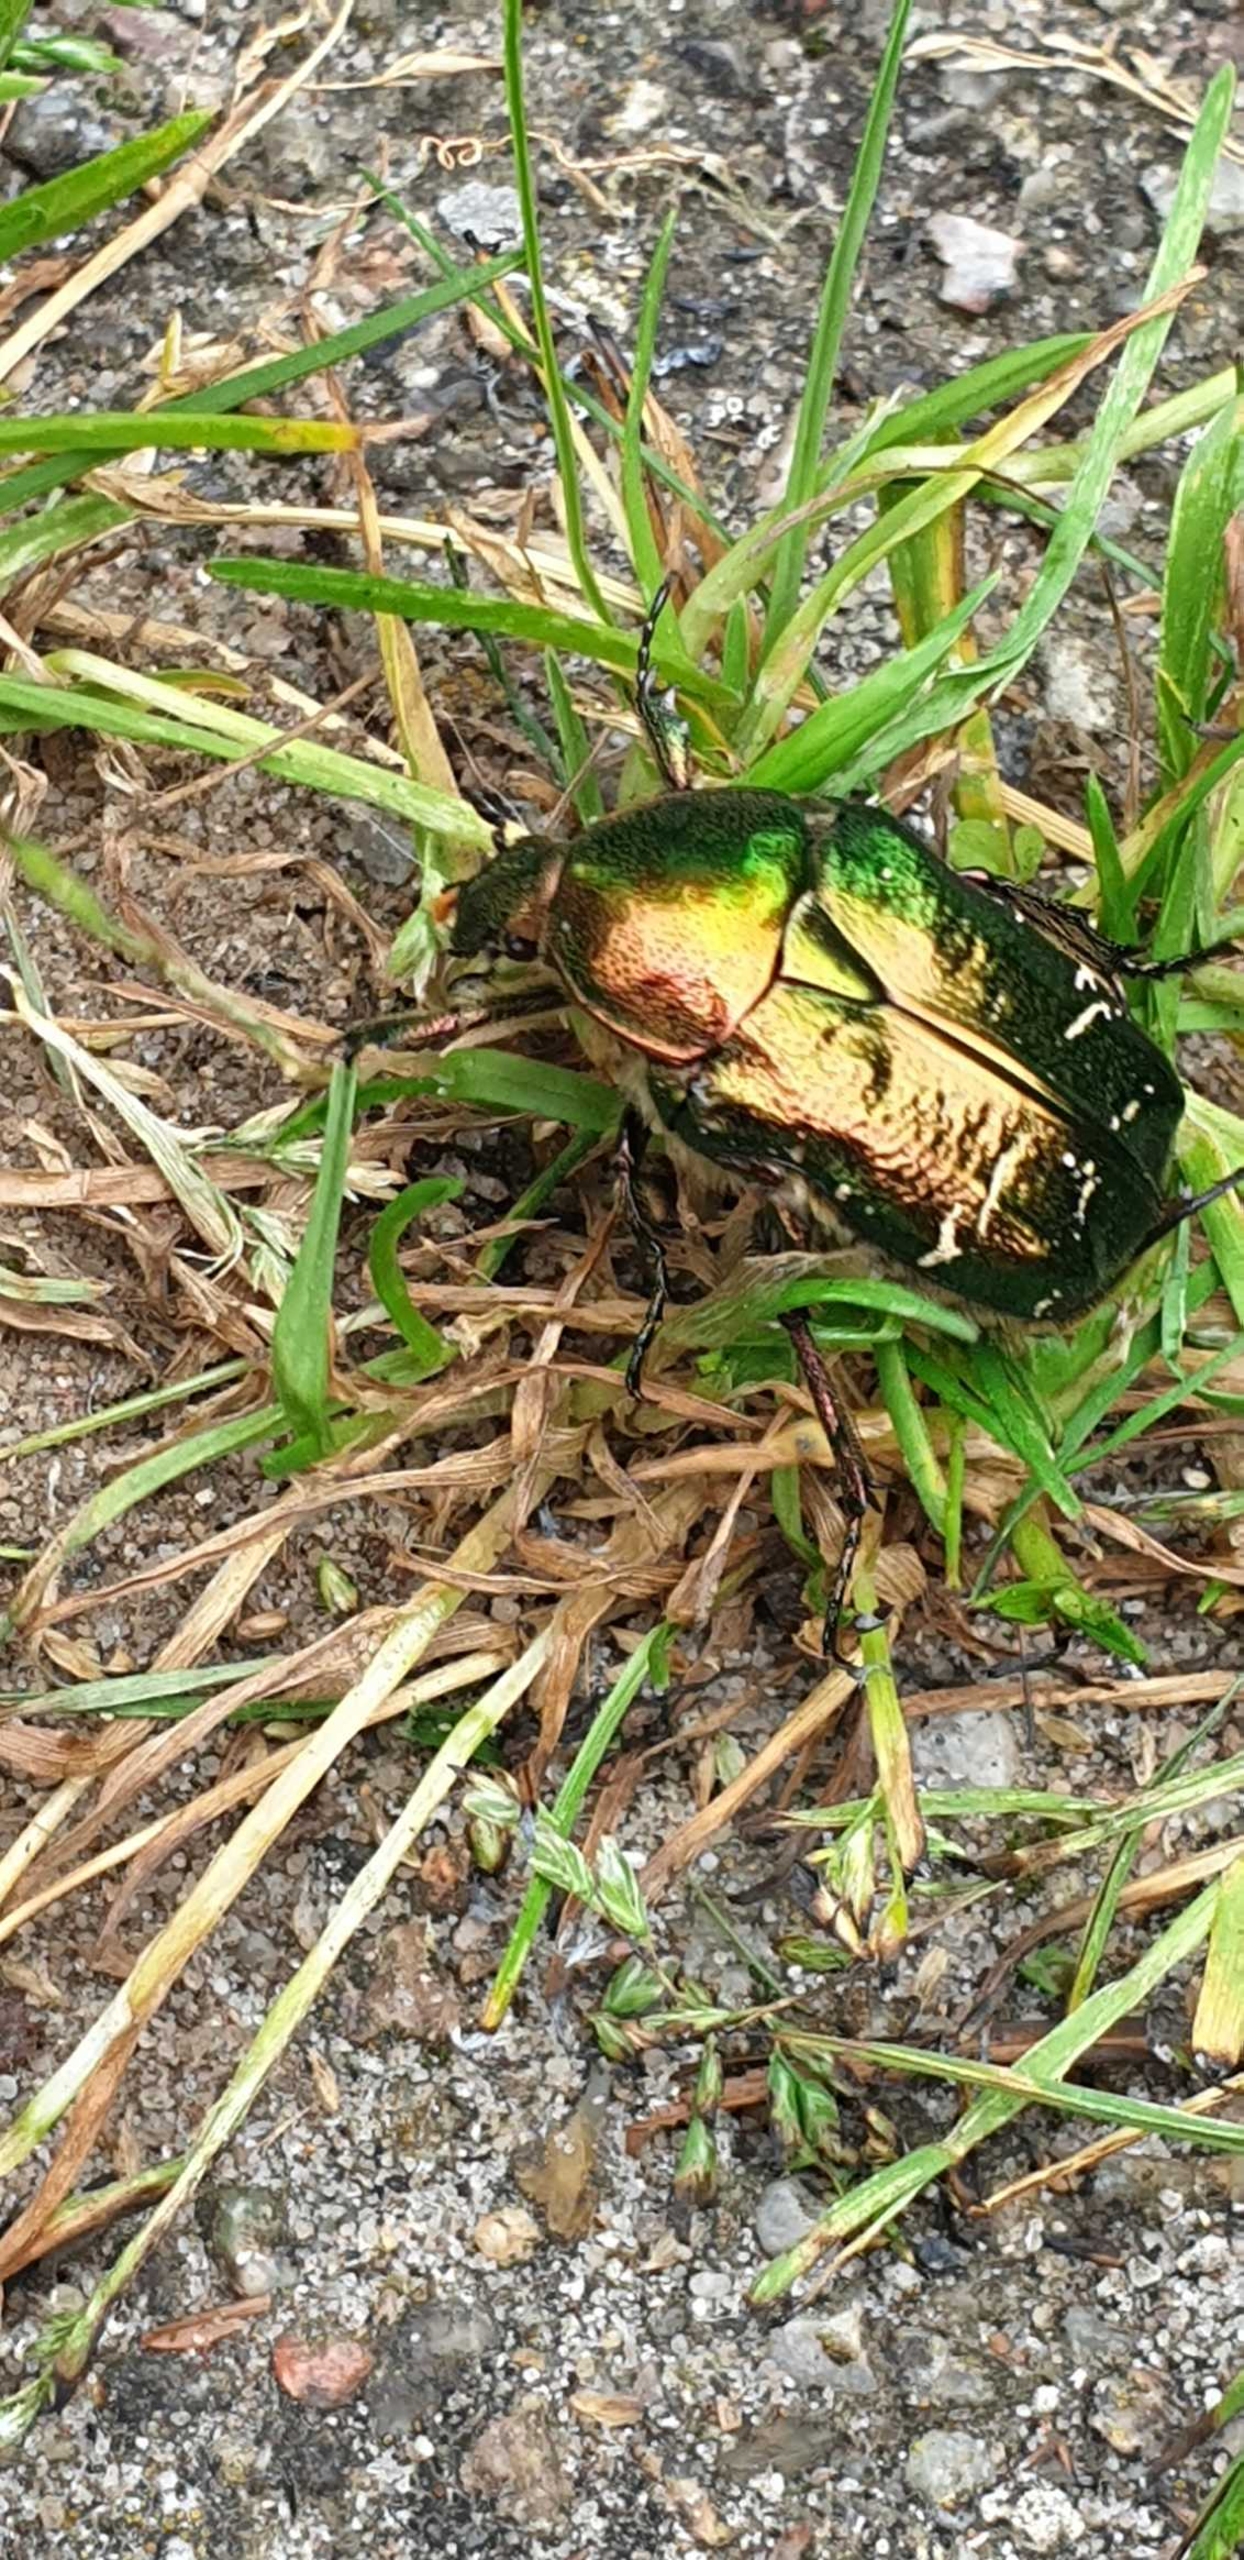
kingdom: Animalia
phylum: Arthropoda
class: Insecta
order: Coleoptera
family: Scarabaeidae
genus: Cetonia
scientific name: Cetonia aurata
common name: Grøn guldbasse
